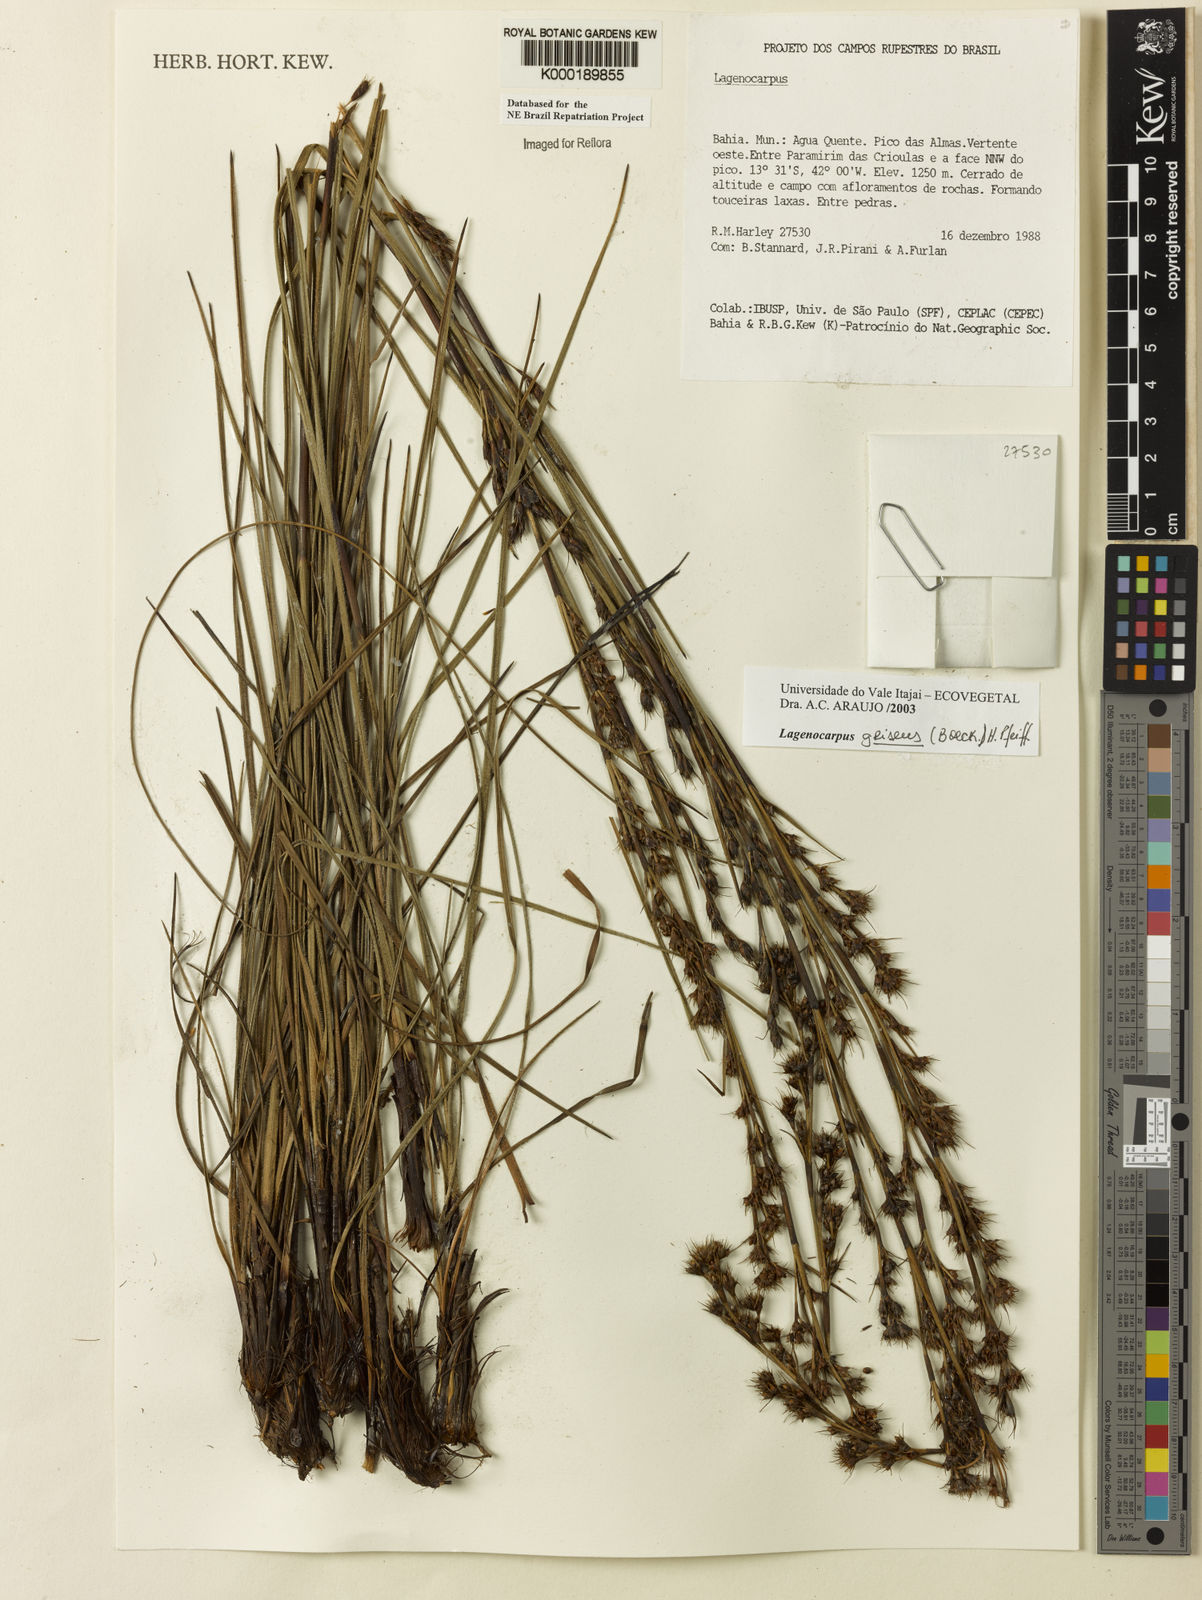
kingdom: Plantae
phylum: Tracheophyta
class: Liliopsida
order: Poales
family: Cyperaceae
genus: Lagenocarpus
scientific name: Lagenocarpus griseus
